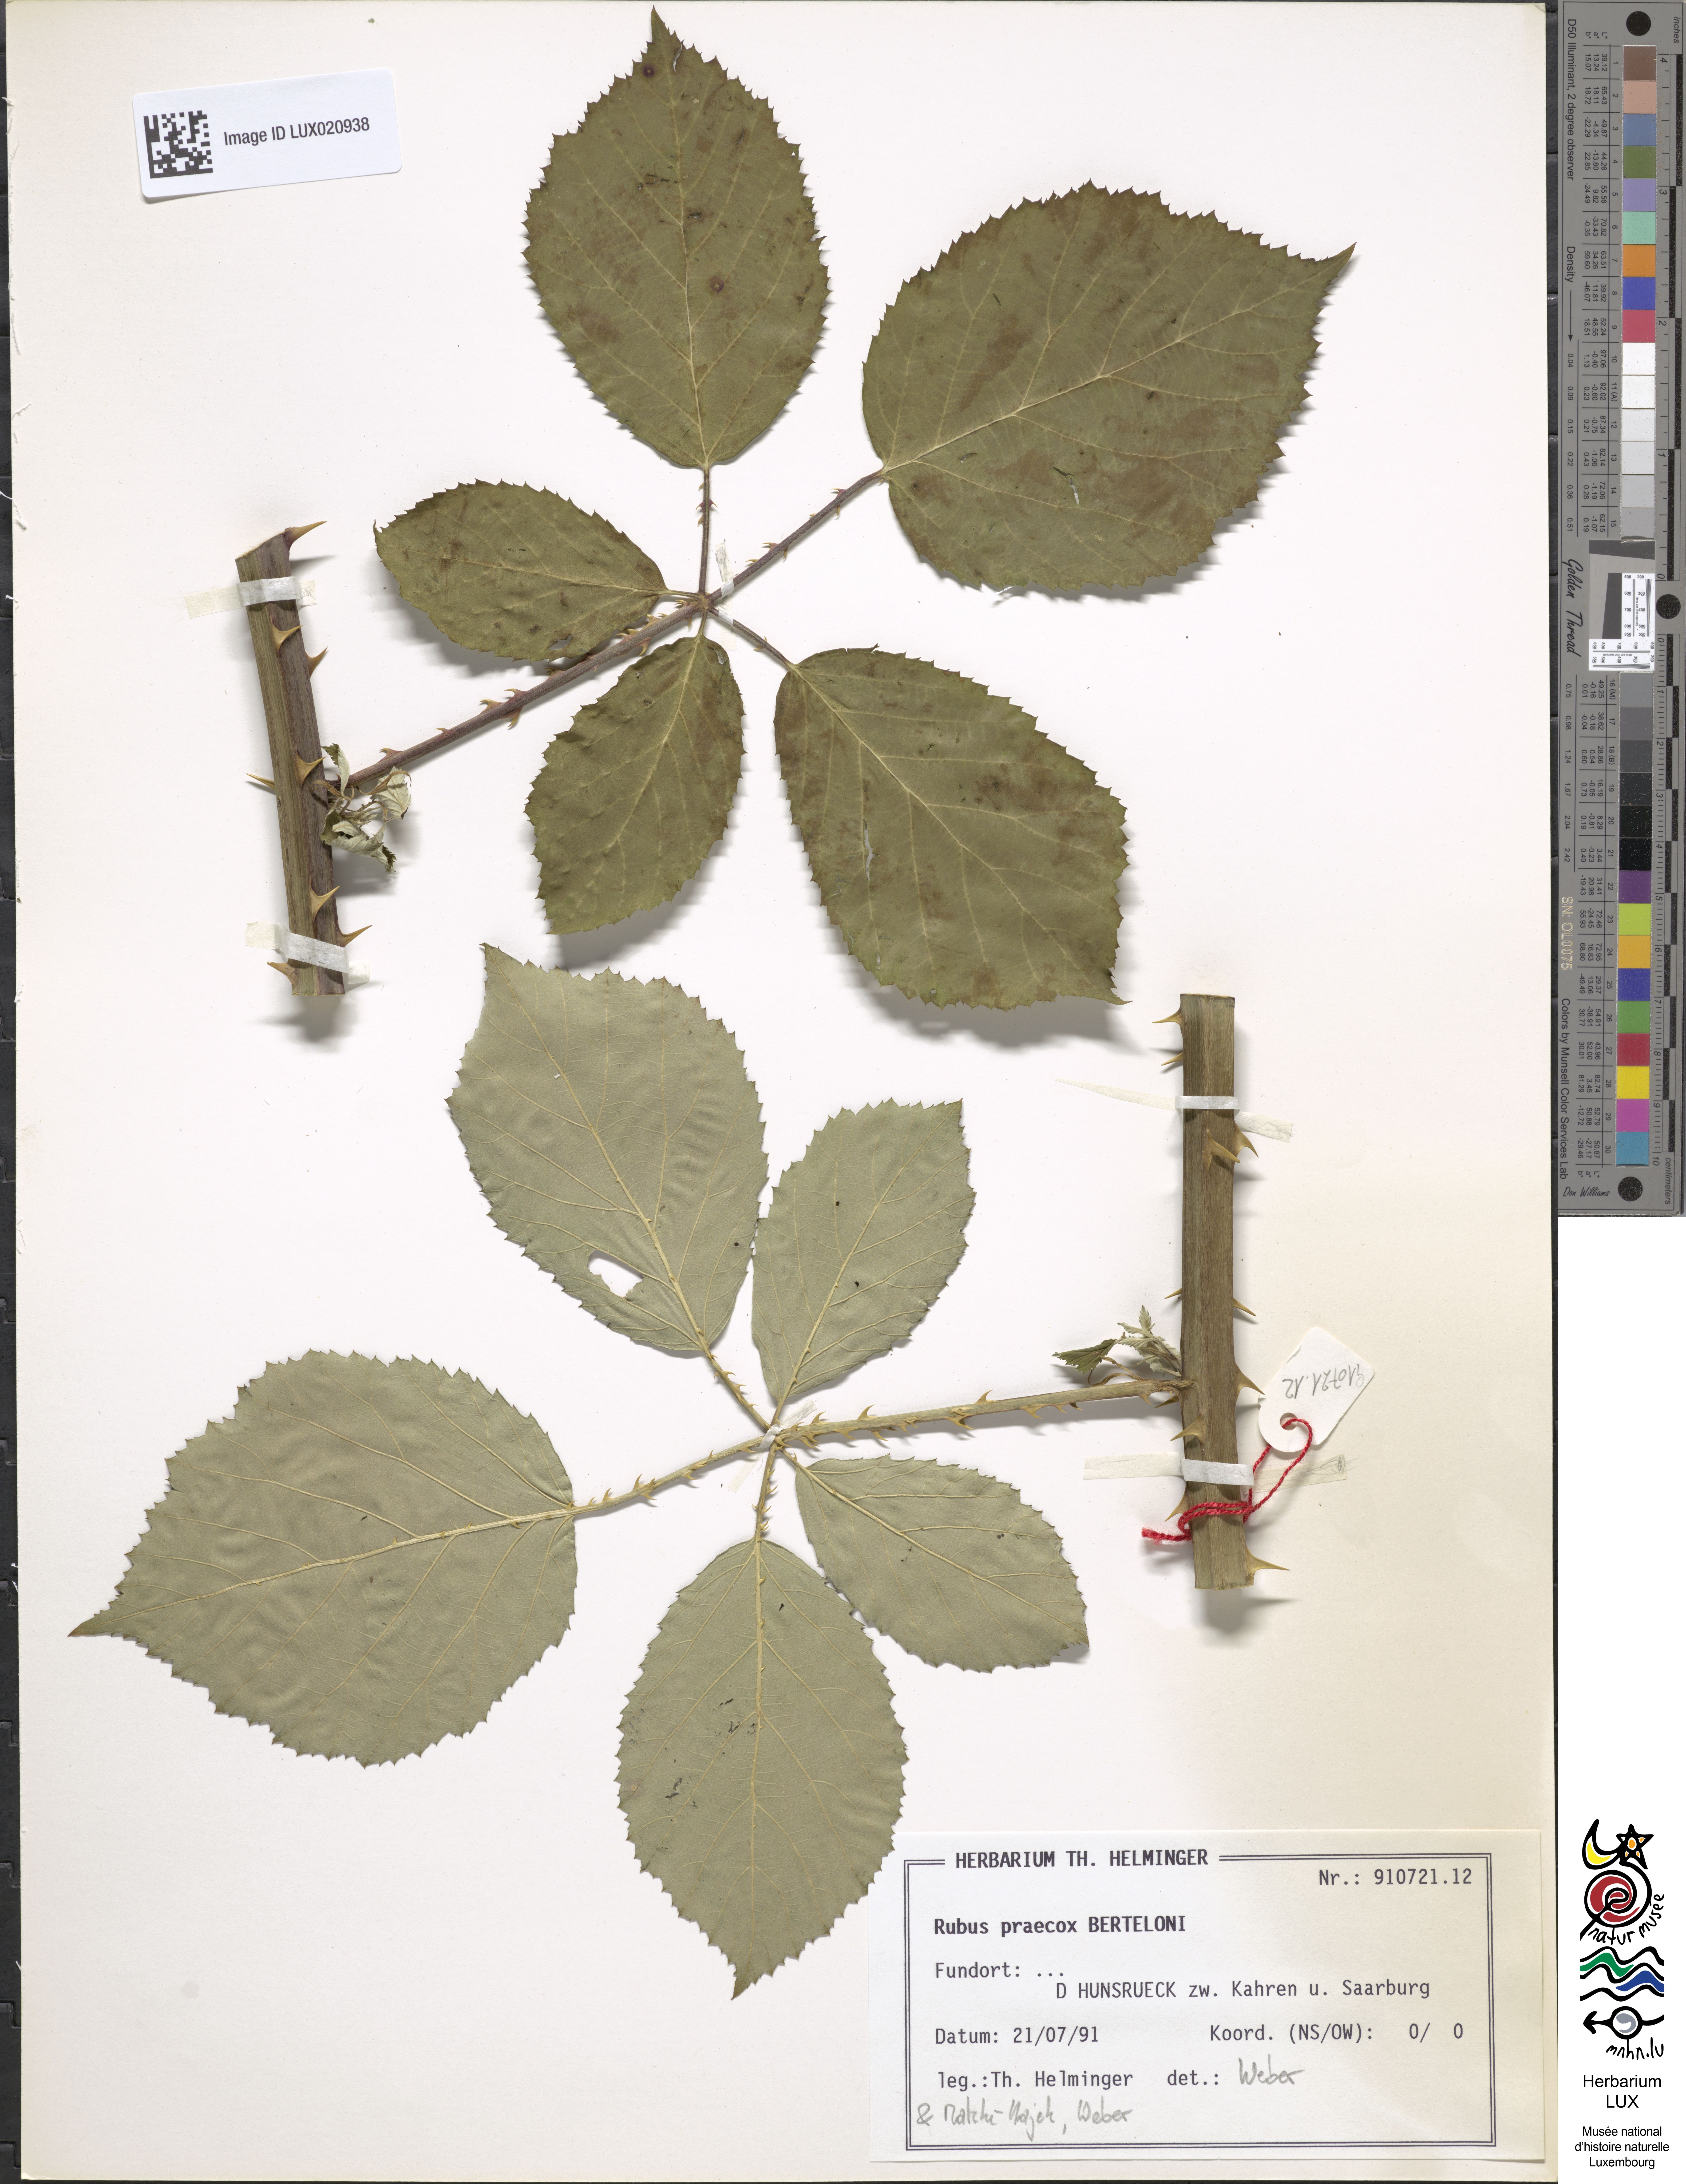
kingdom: Plantae
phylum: Tracheophyta
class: Magnoliopsida
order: Rosales
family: Rosaceae
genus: Rubus
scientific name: Rubus praecox
